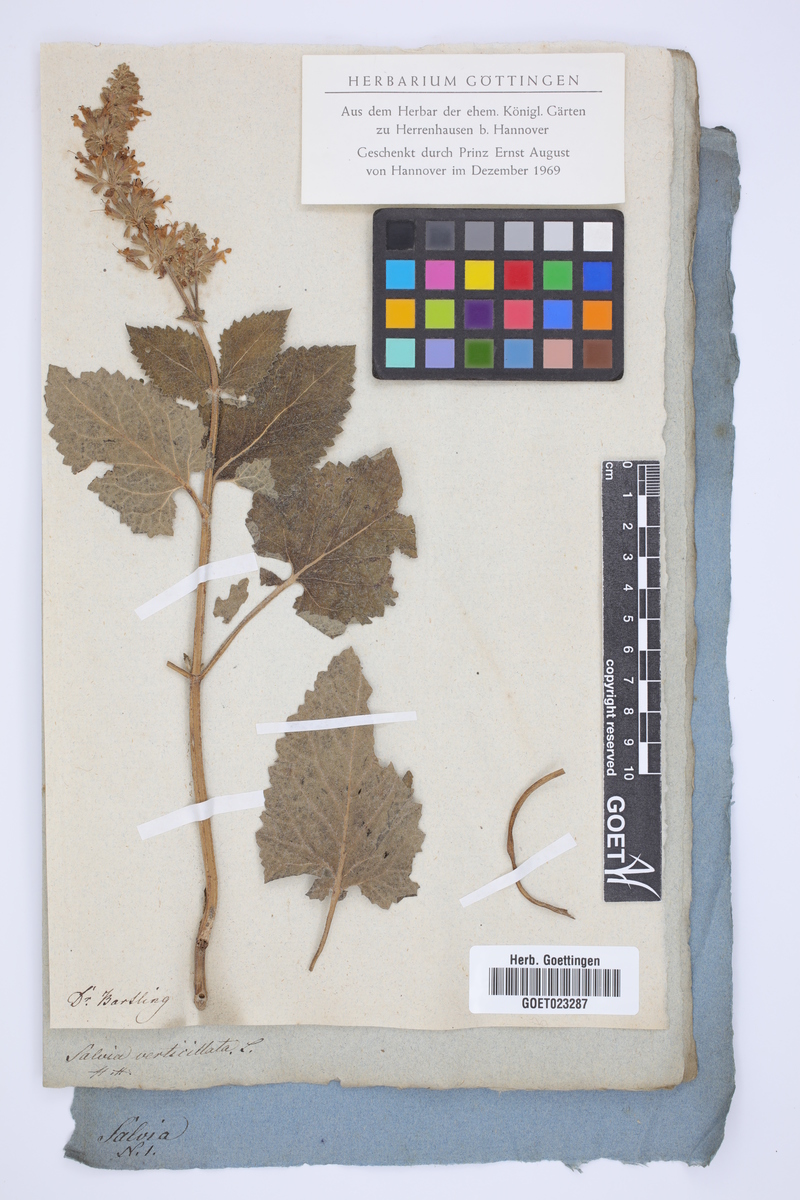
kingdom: Plantae
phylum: Tracheophyta
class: Magnoliopsida
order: Lamiales
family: Lamiaceae
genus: Salvia
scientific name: Salvia verticillata
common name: Whorled clary
